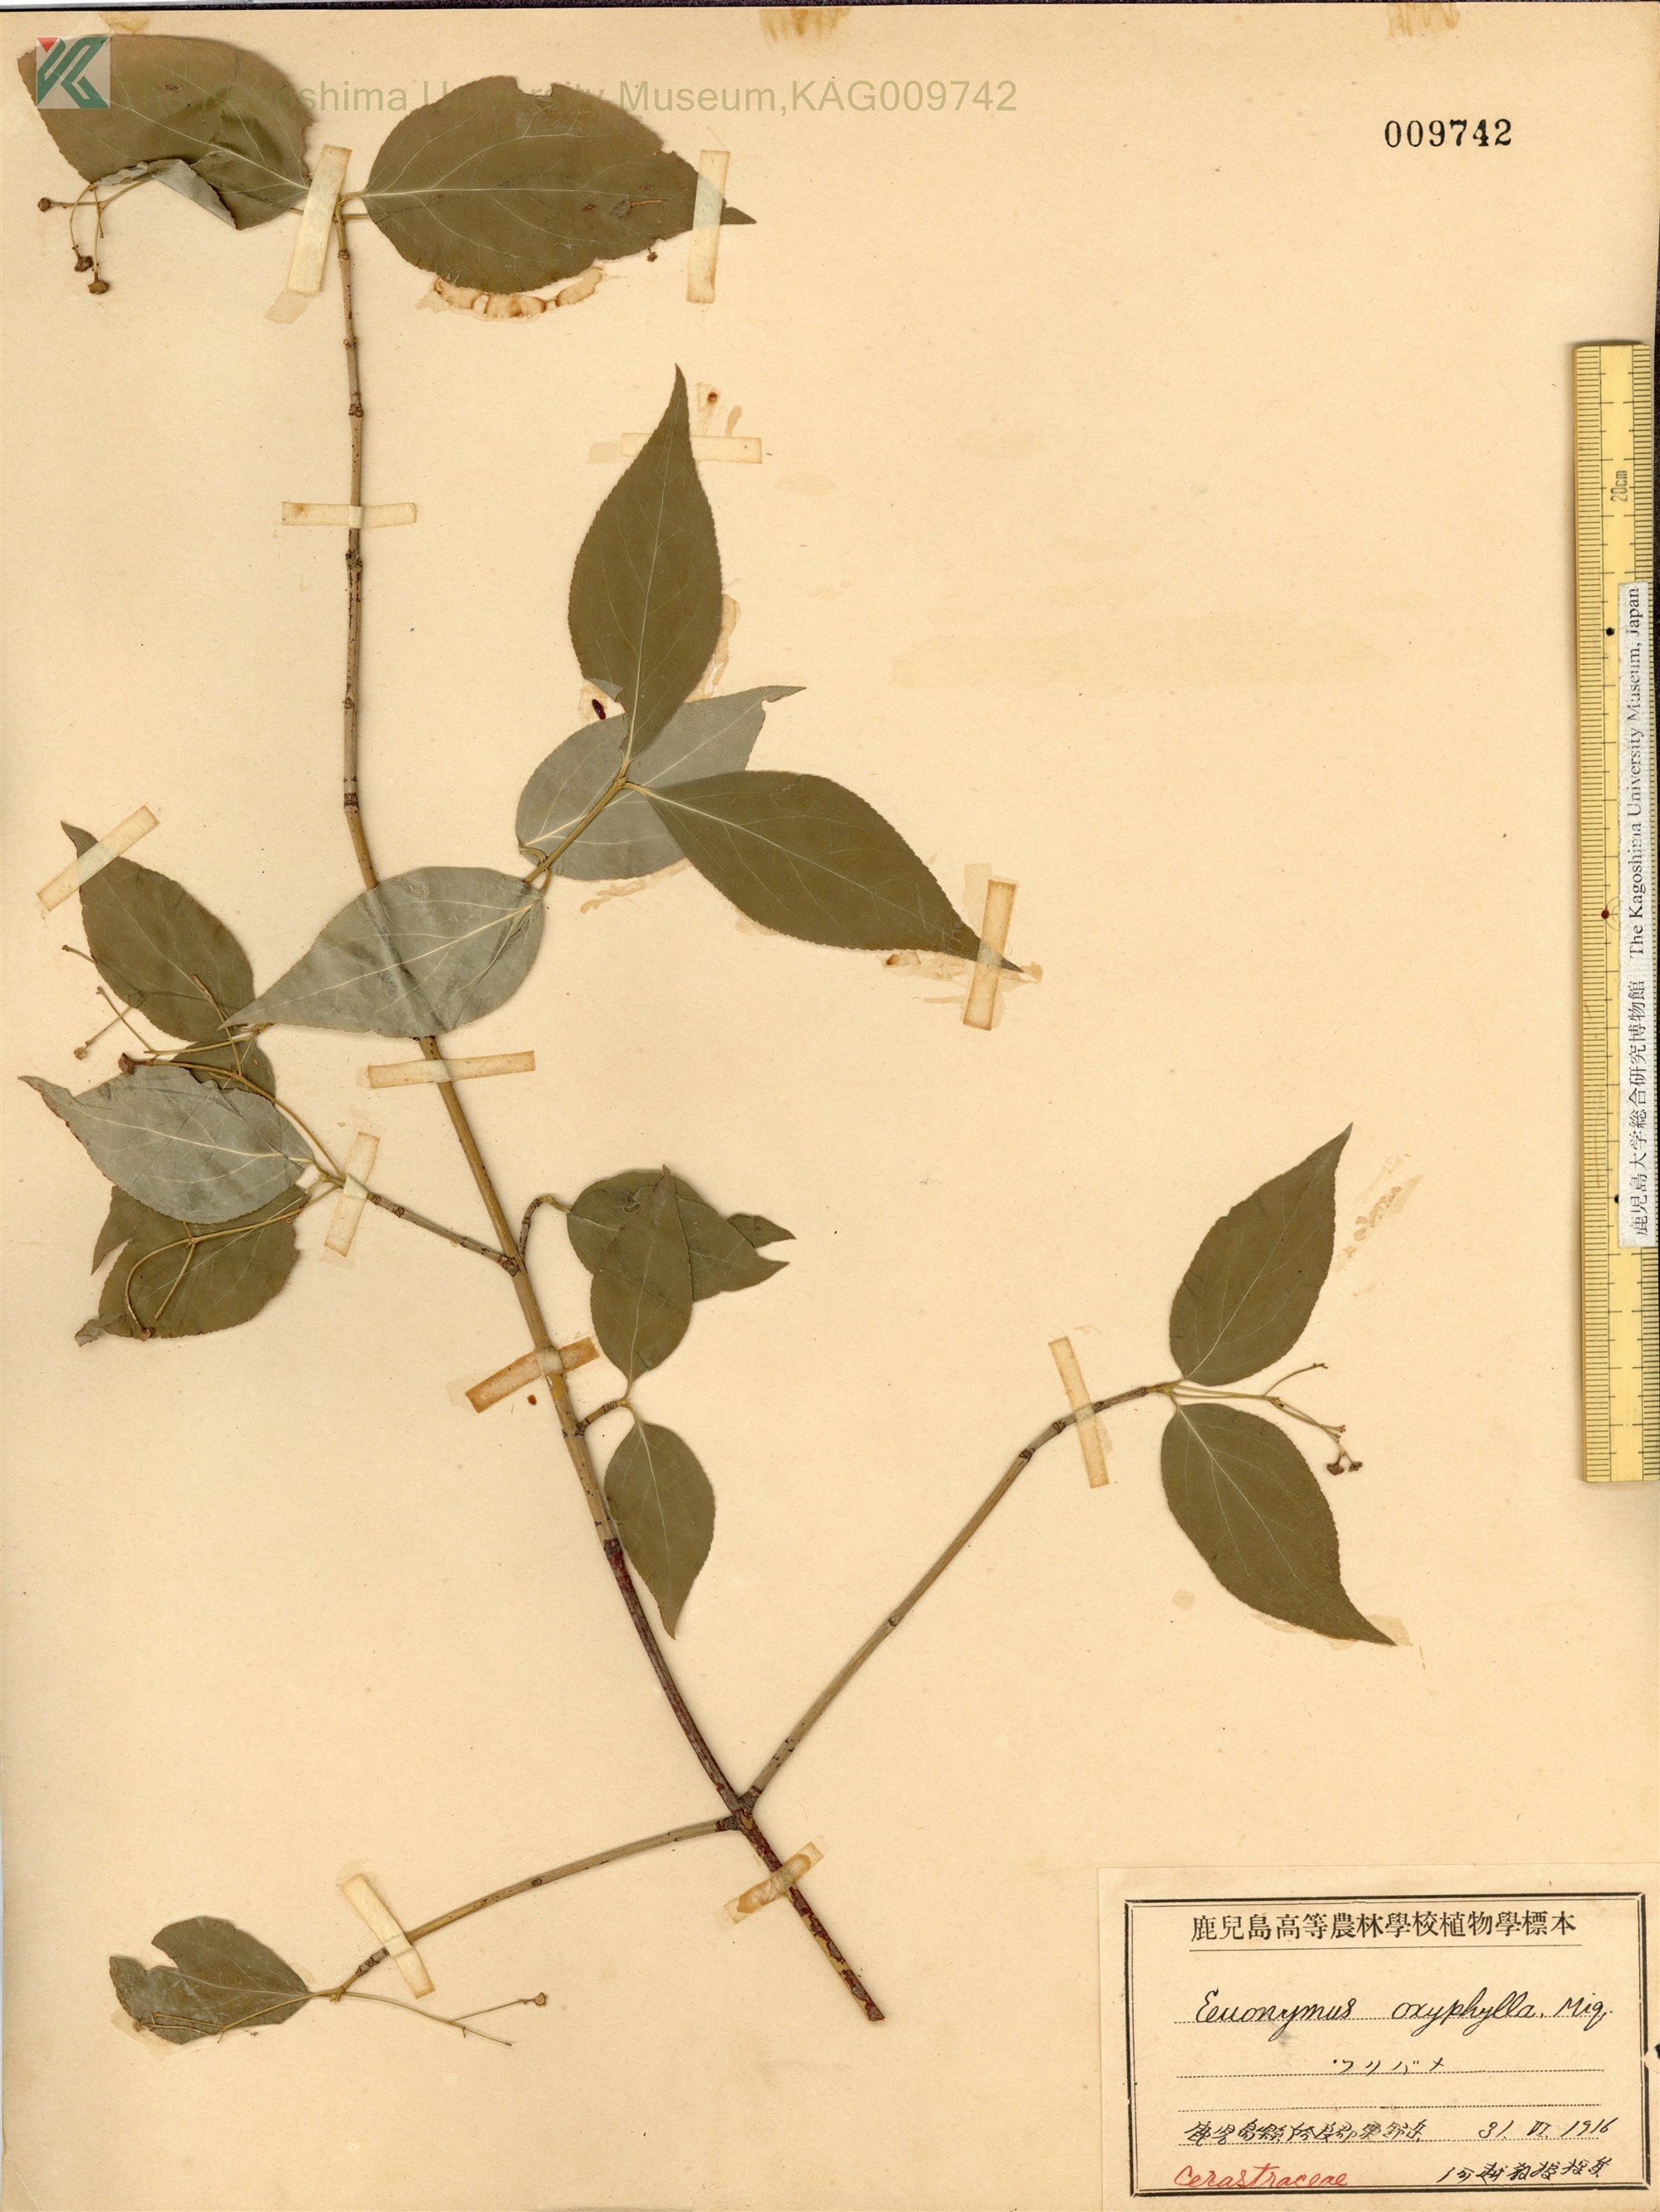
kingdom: Plantae
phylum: Tracheophyta
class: Magnoliopsida
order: Celastrales
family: Celastraceae
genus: Euonymus
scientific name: Euonymus oxyphyllus
